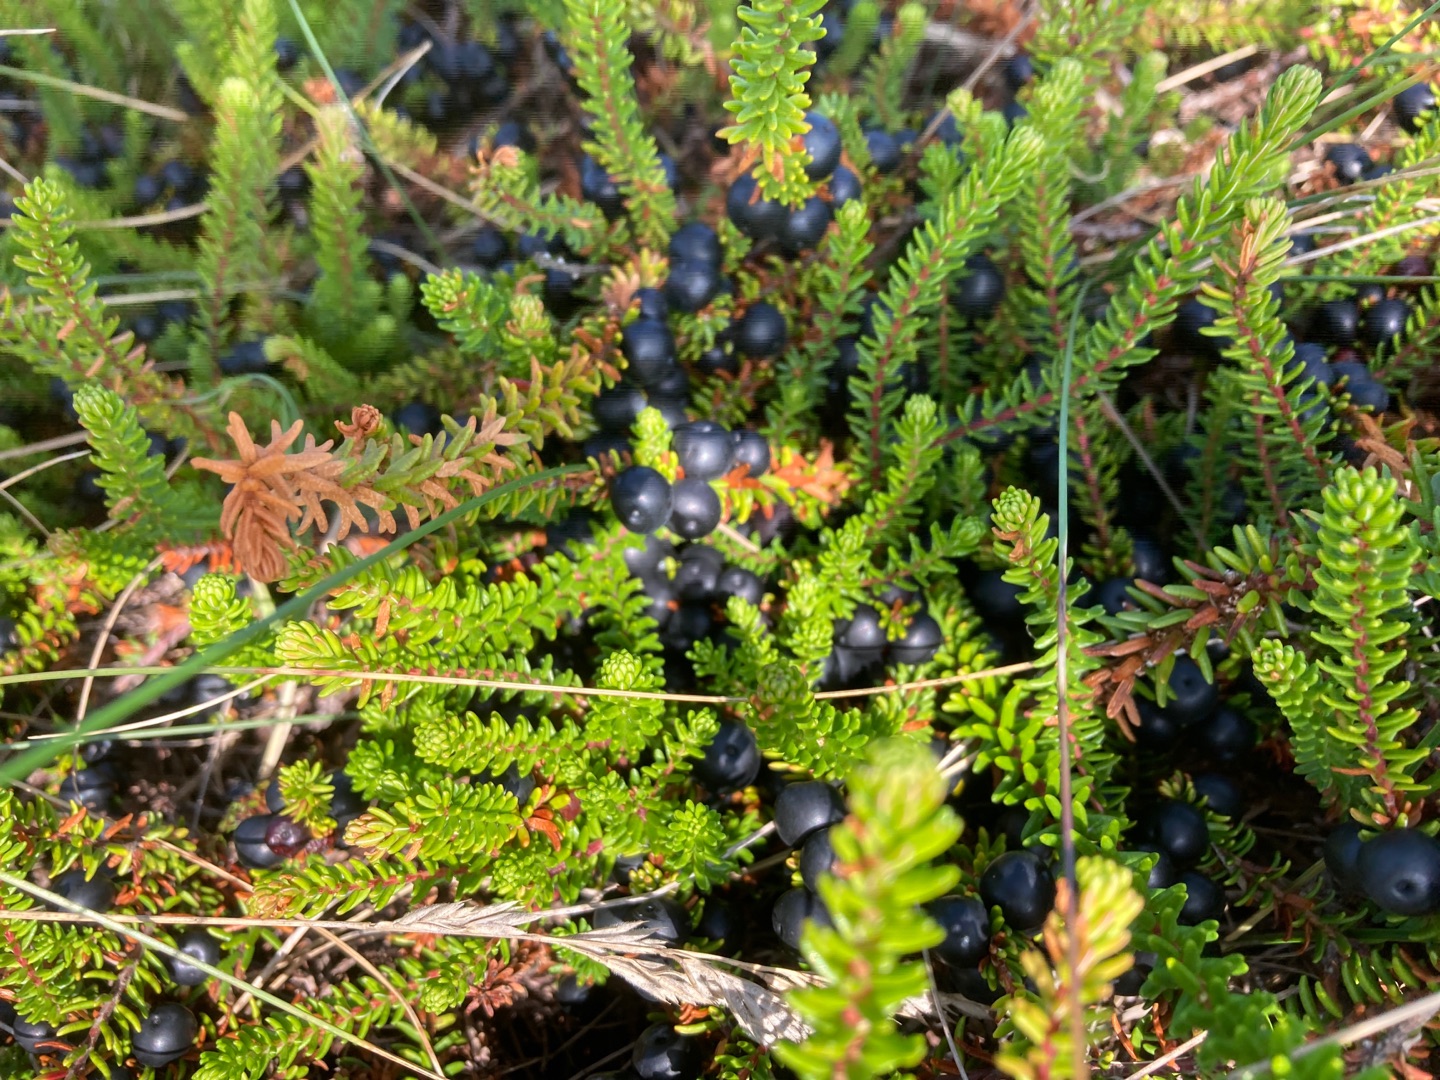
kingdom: Plantae
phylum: Tracheophyta
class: Magnoliopsida
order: Ericales
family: Ericaceae
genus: Empetrum
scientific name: Empetrum nigrum
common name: Revling
